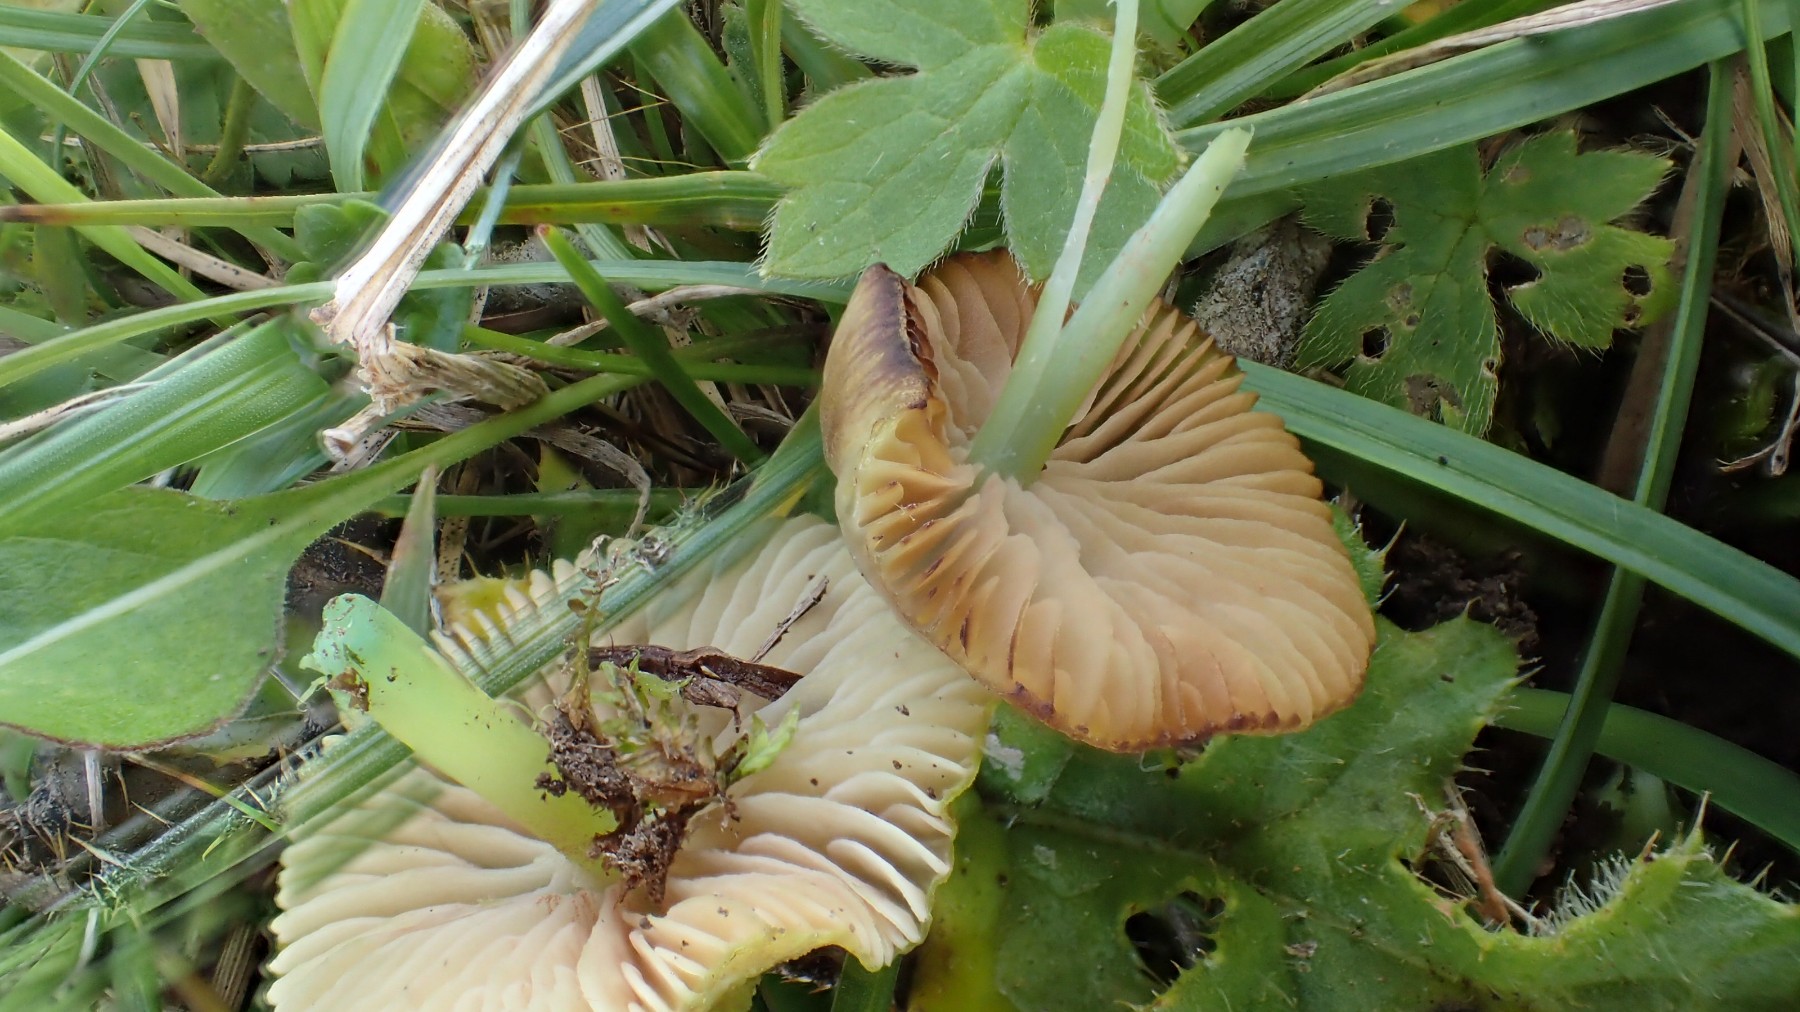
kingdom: Fungi
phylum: Basidiomycota
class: Agaricomycetes
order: Agaricales
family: Entolomataceae
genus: Entoloma
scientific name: Entoloma incanum
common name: grøngul rødblad
